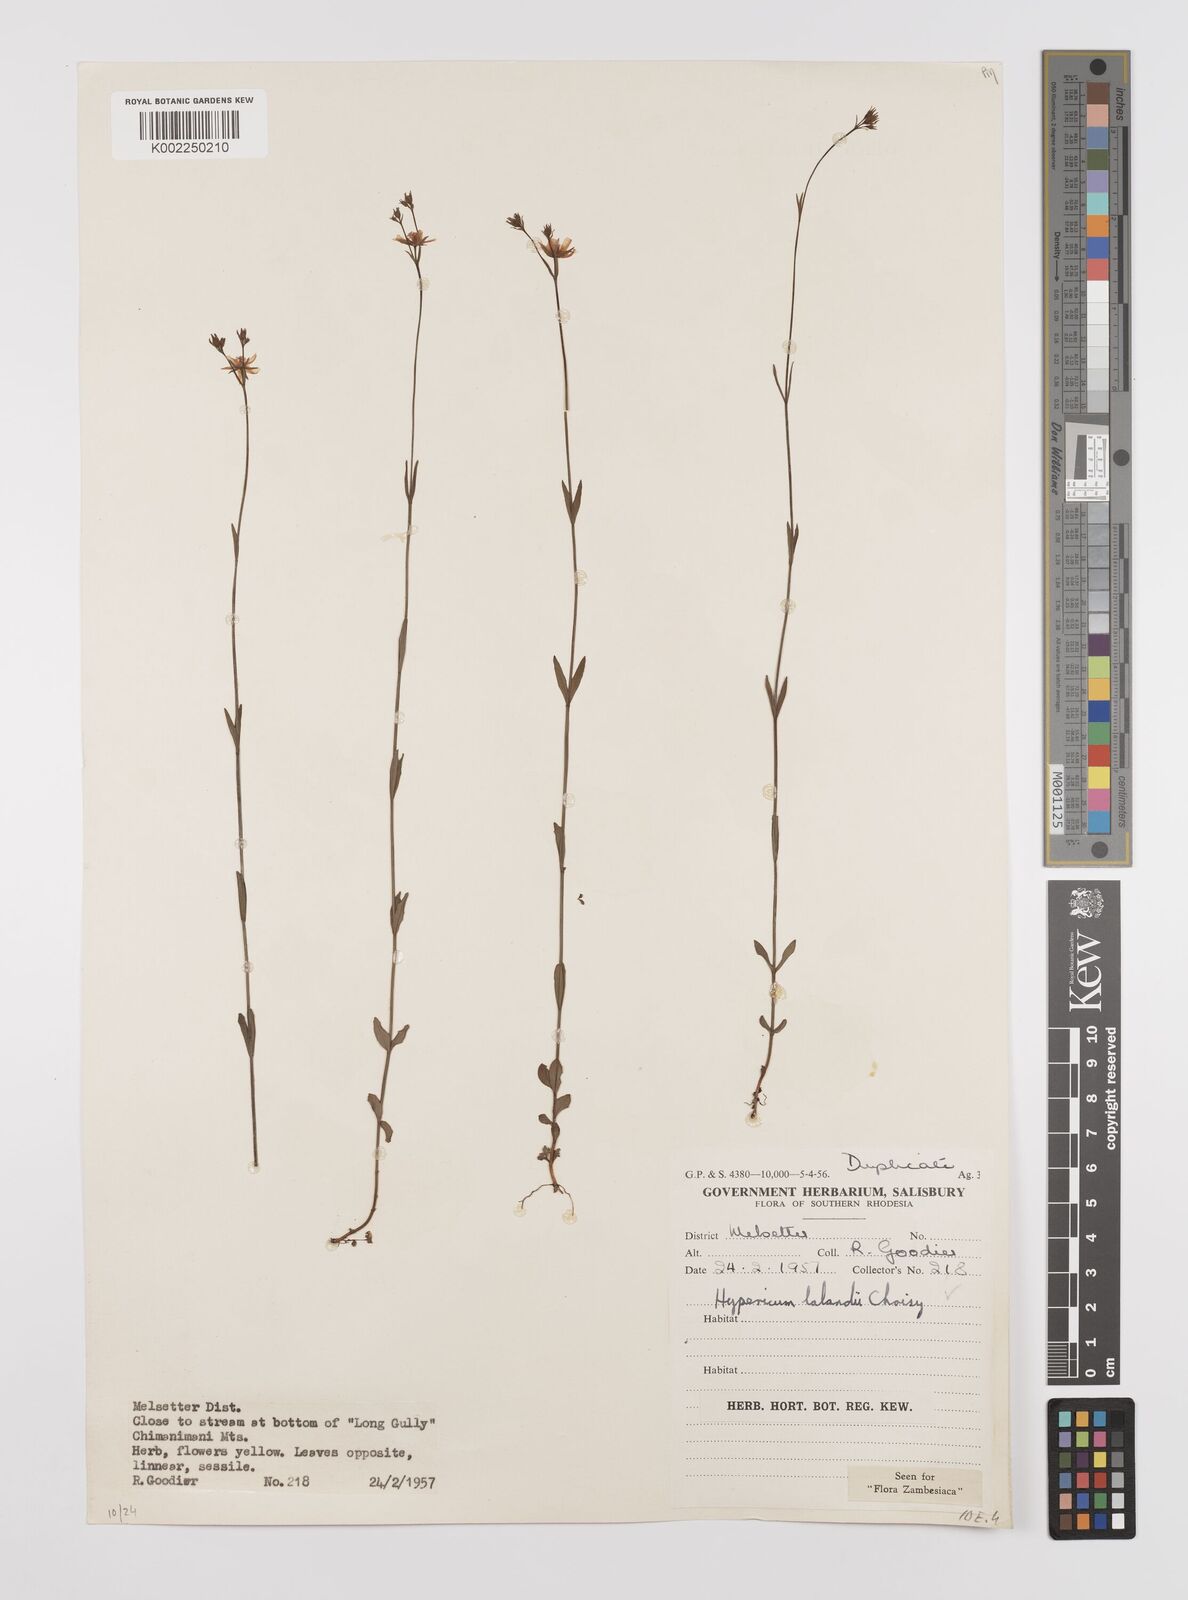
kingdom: Plantae
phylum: Tracheophyta
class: Magnoliopsida
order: Malpighiales
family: Hypericaceae
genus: Hypericum
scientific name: Hypericum lalandii
